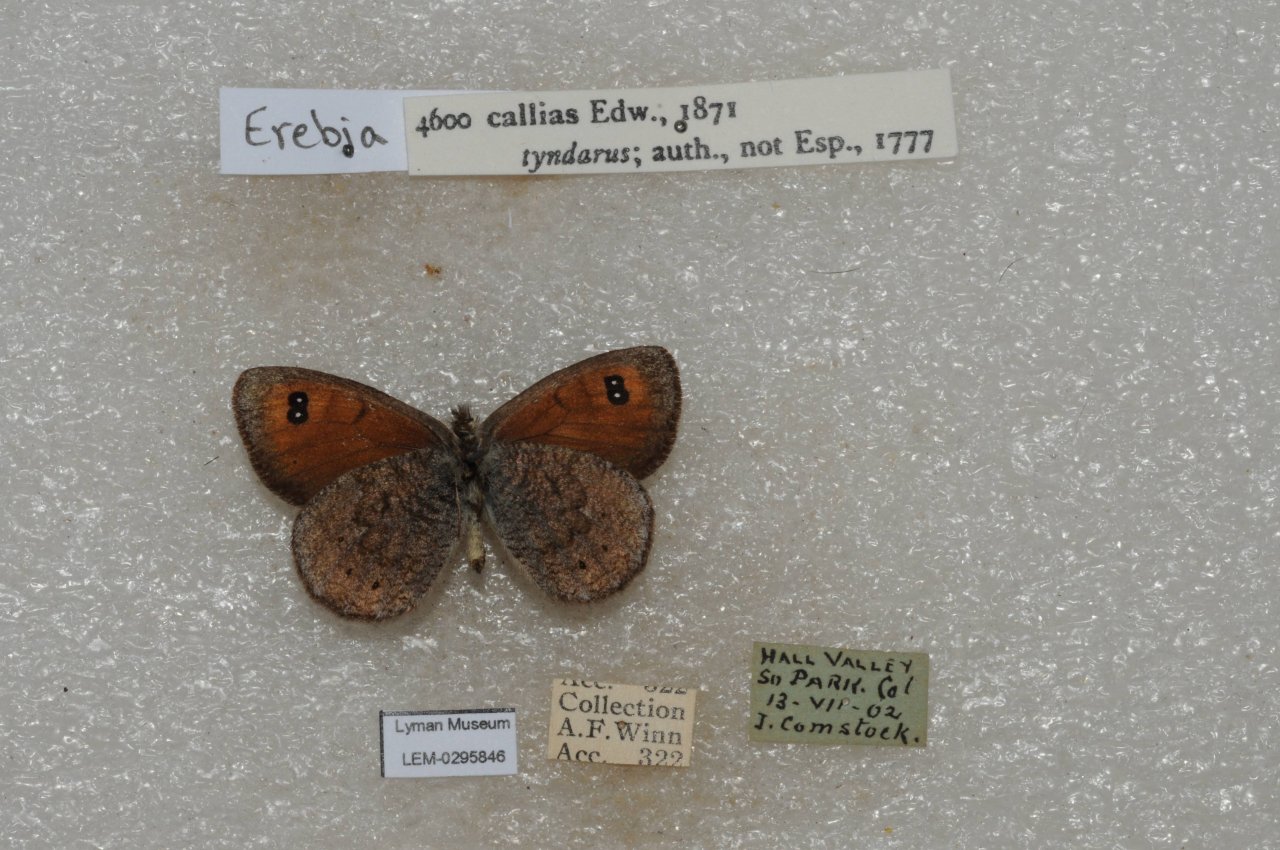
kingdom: Animalia
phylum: Arthropoda
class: Insecta
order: Lepidoptera
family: Nymphalidae
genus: Erebia
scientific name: Erebia tyndarus
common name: Colorado Alpine
